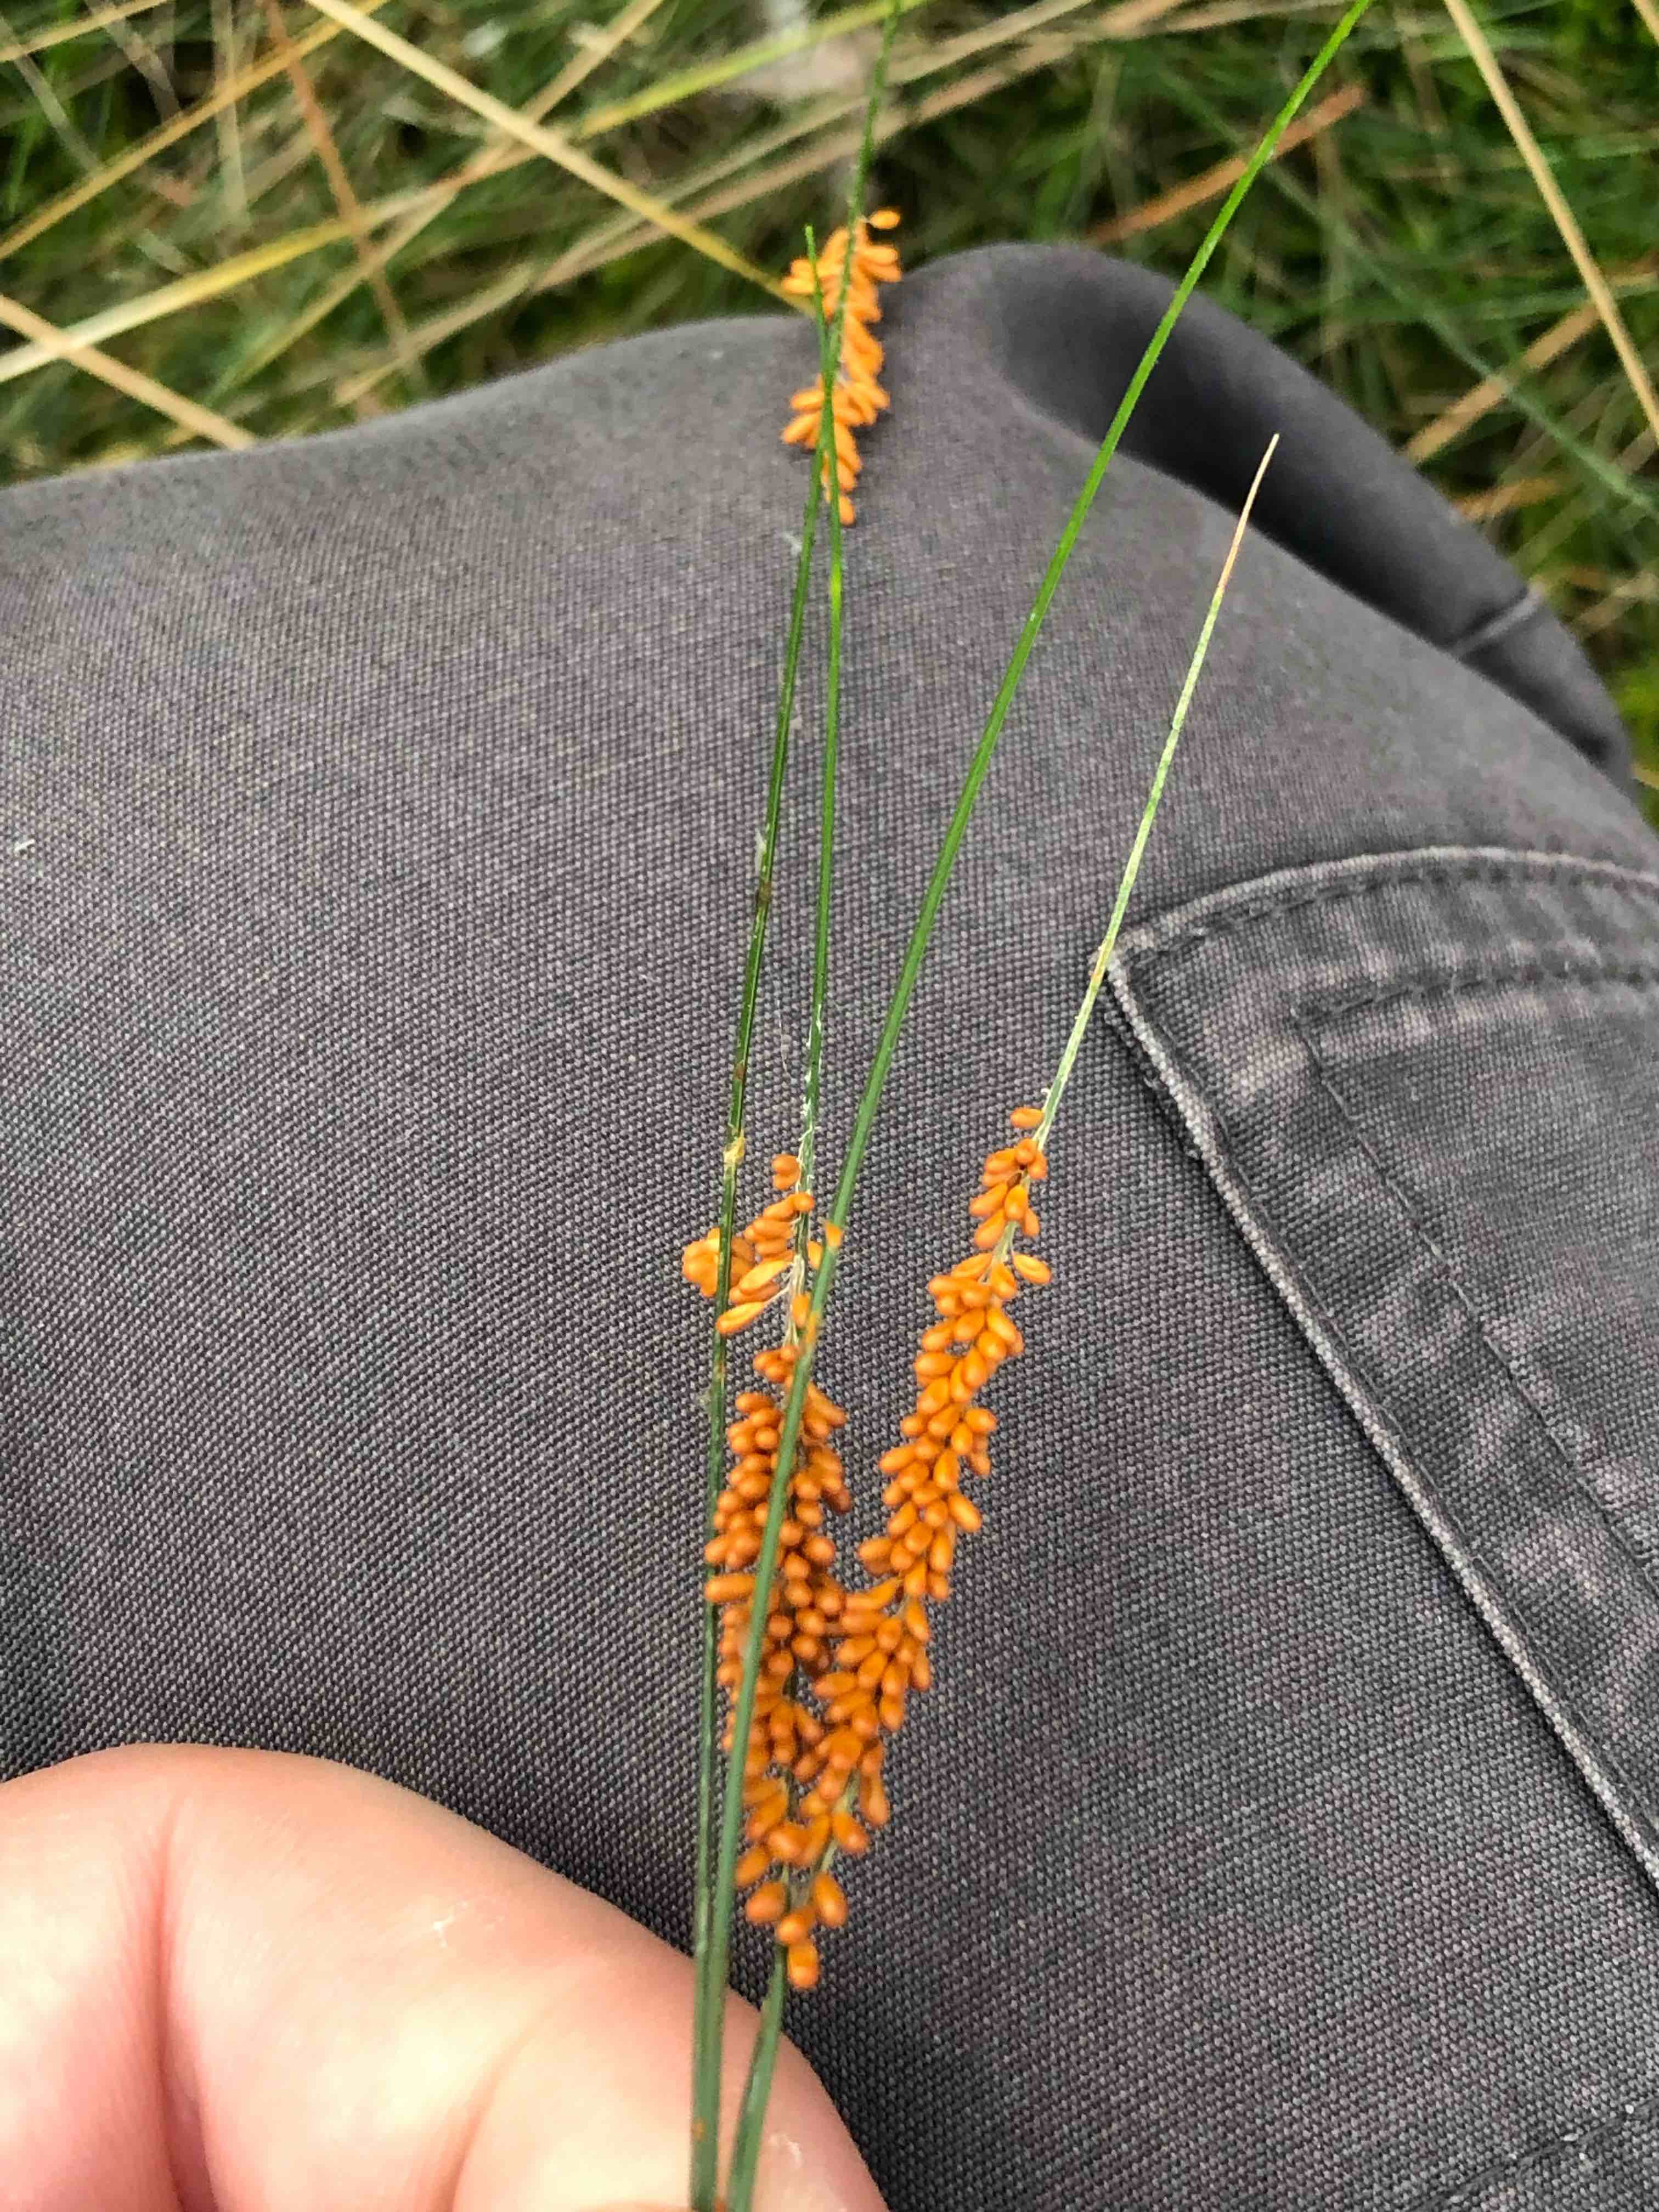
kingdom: Protozoa
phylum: Mycetozoa
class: Myxomycetes
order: Physarales
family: Physaraceae
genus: Leocarpus
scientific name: Leocarpus fragilis
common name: poleret glatfrø
